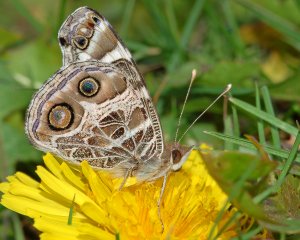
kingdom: Animalia
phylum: Arthropoda
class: Insecta
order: Lepidoptera
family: Nymphalidae
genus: Vanessa
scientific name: Vanessa virginiensis
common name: American Lady
